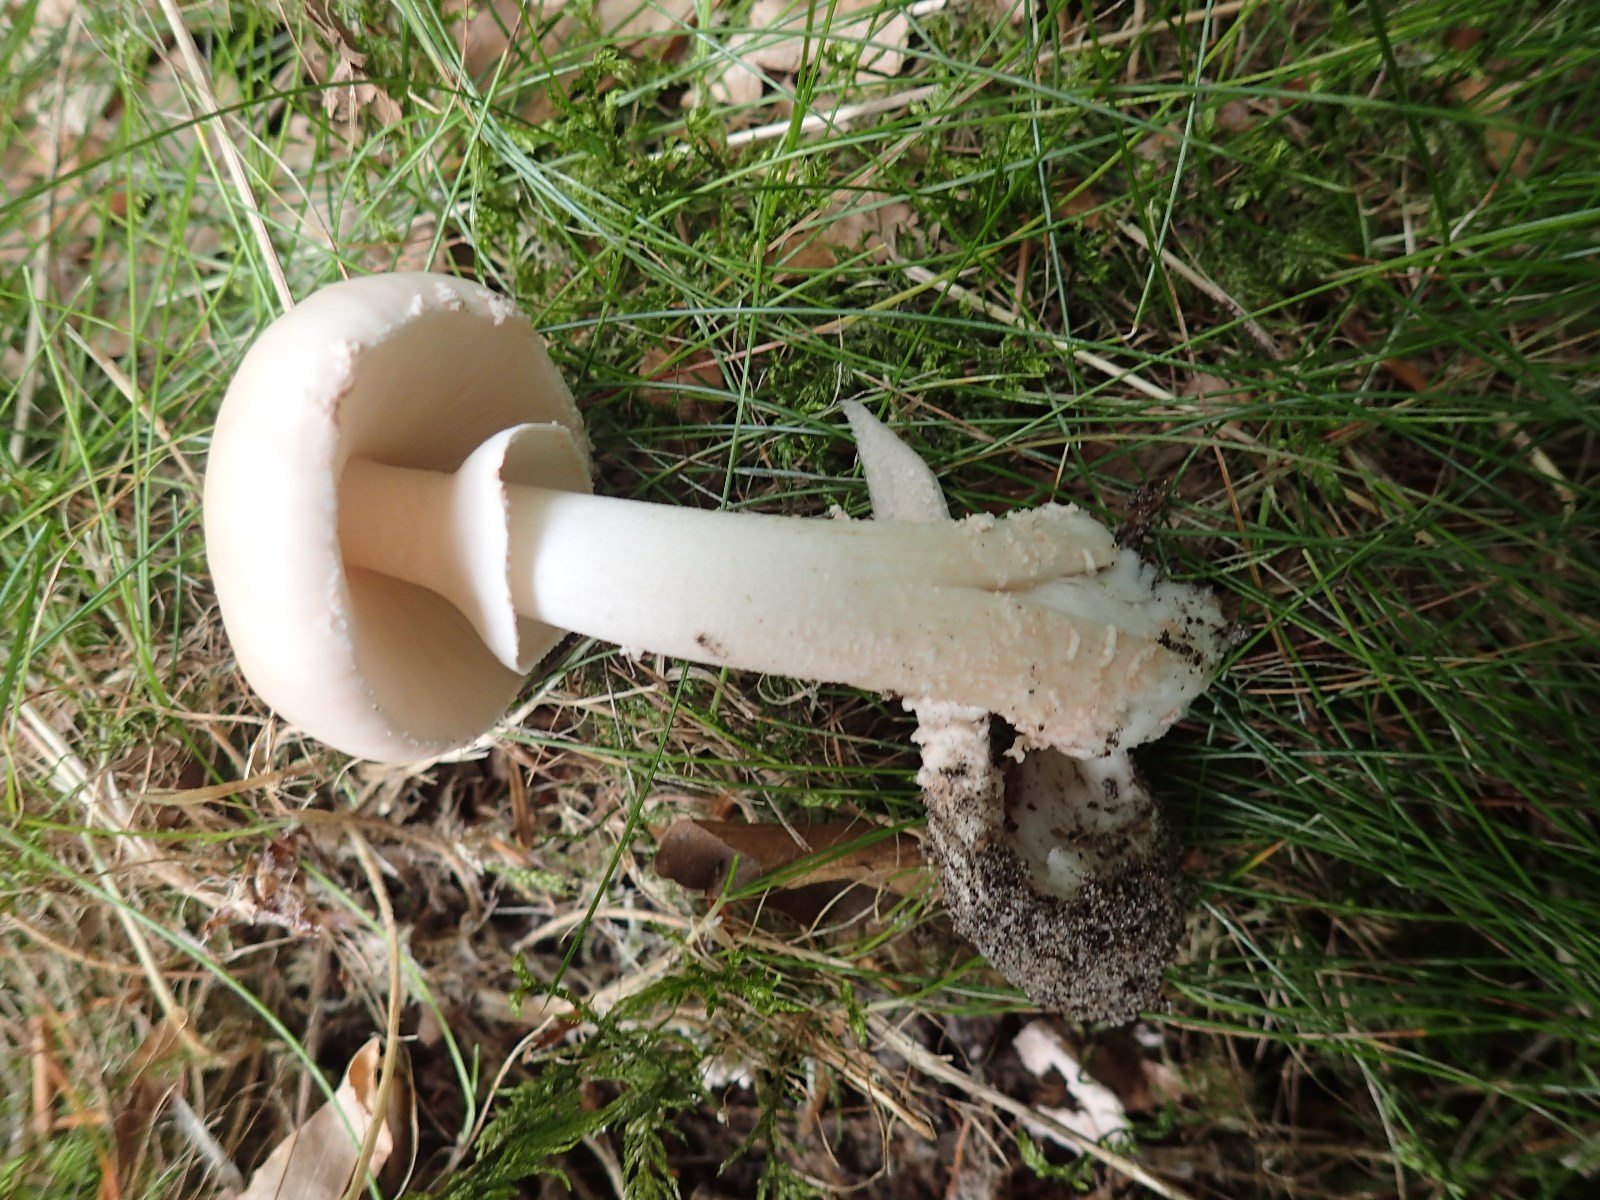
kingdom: Fungi
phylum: Basidiomycota
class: Agaricomycetes
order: Agaricales
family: Amanitaceae
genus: Amanita
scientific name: Amanita
